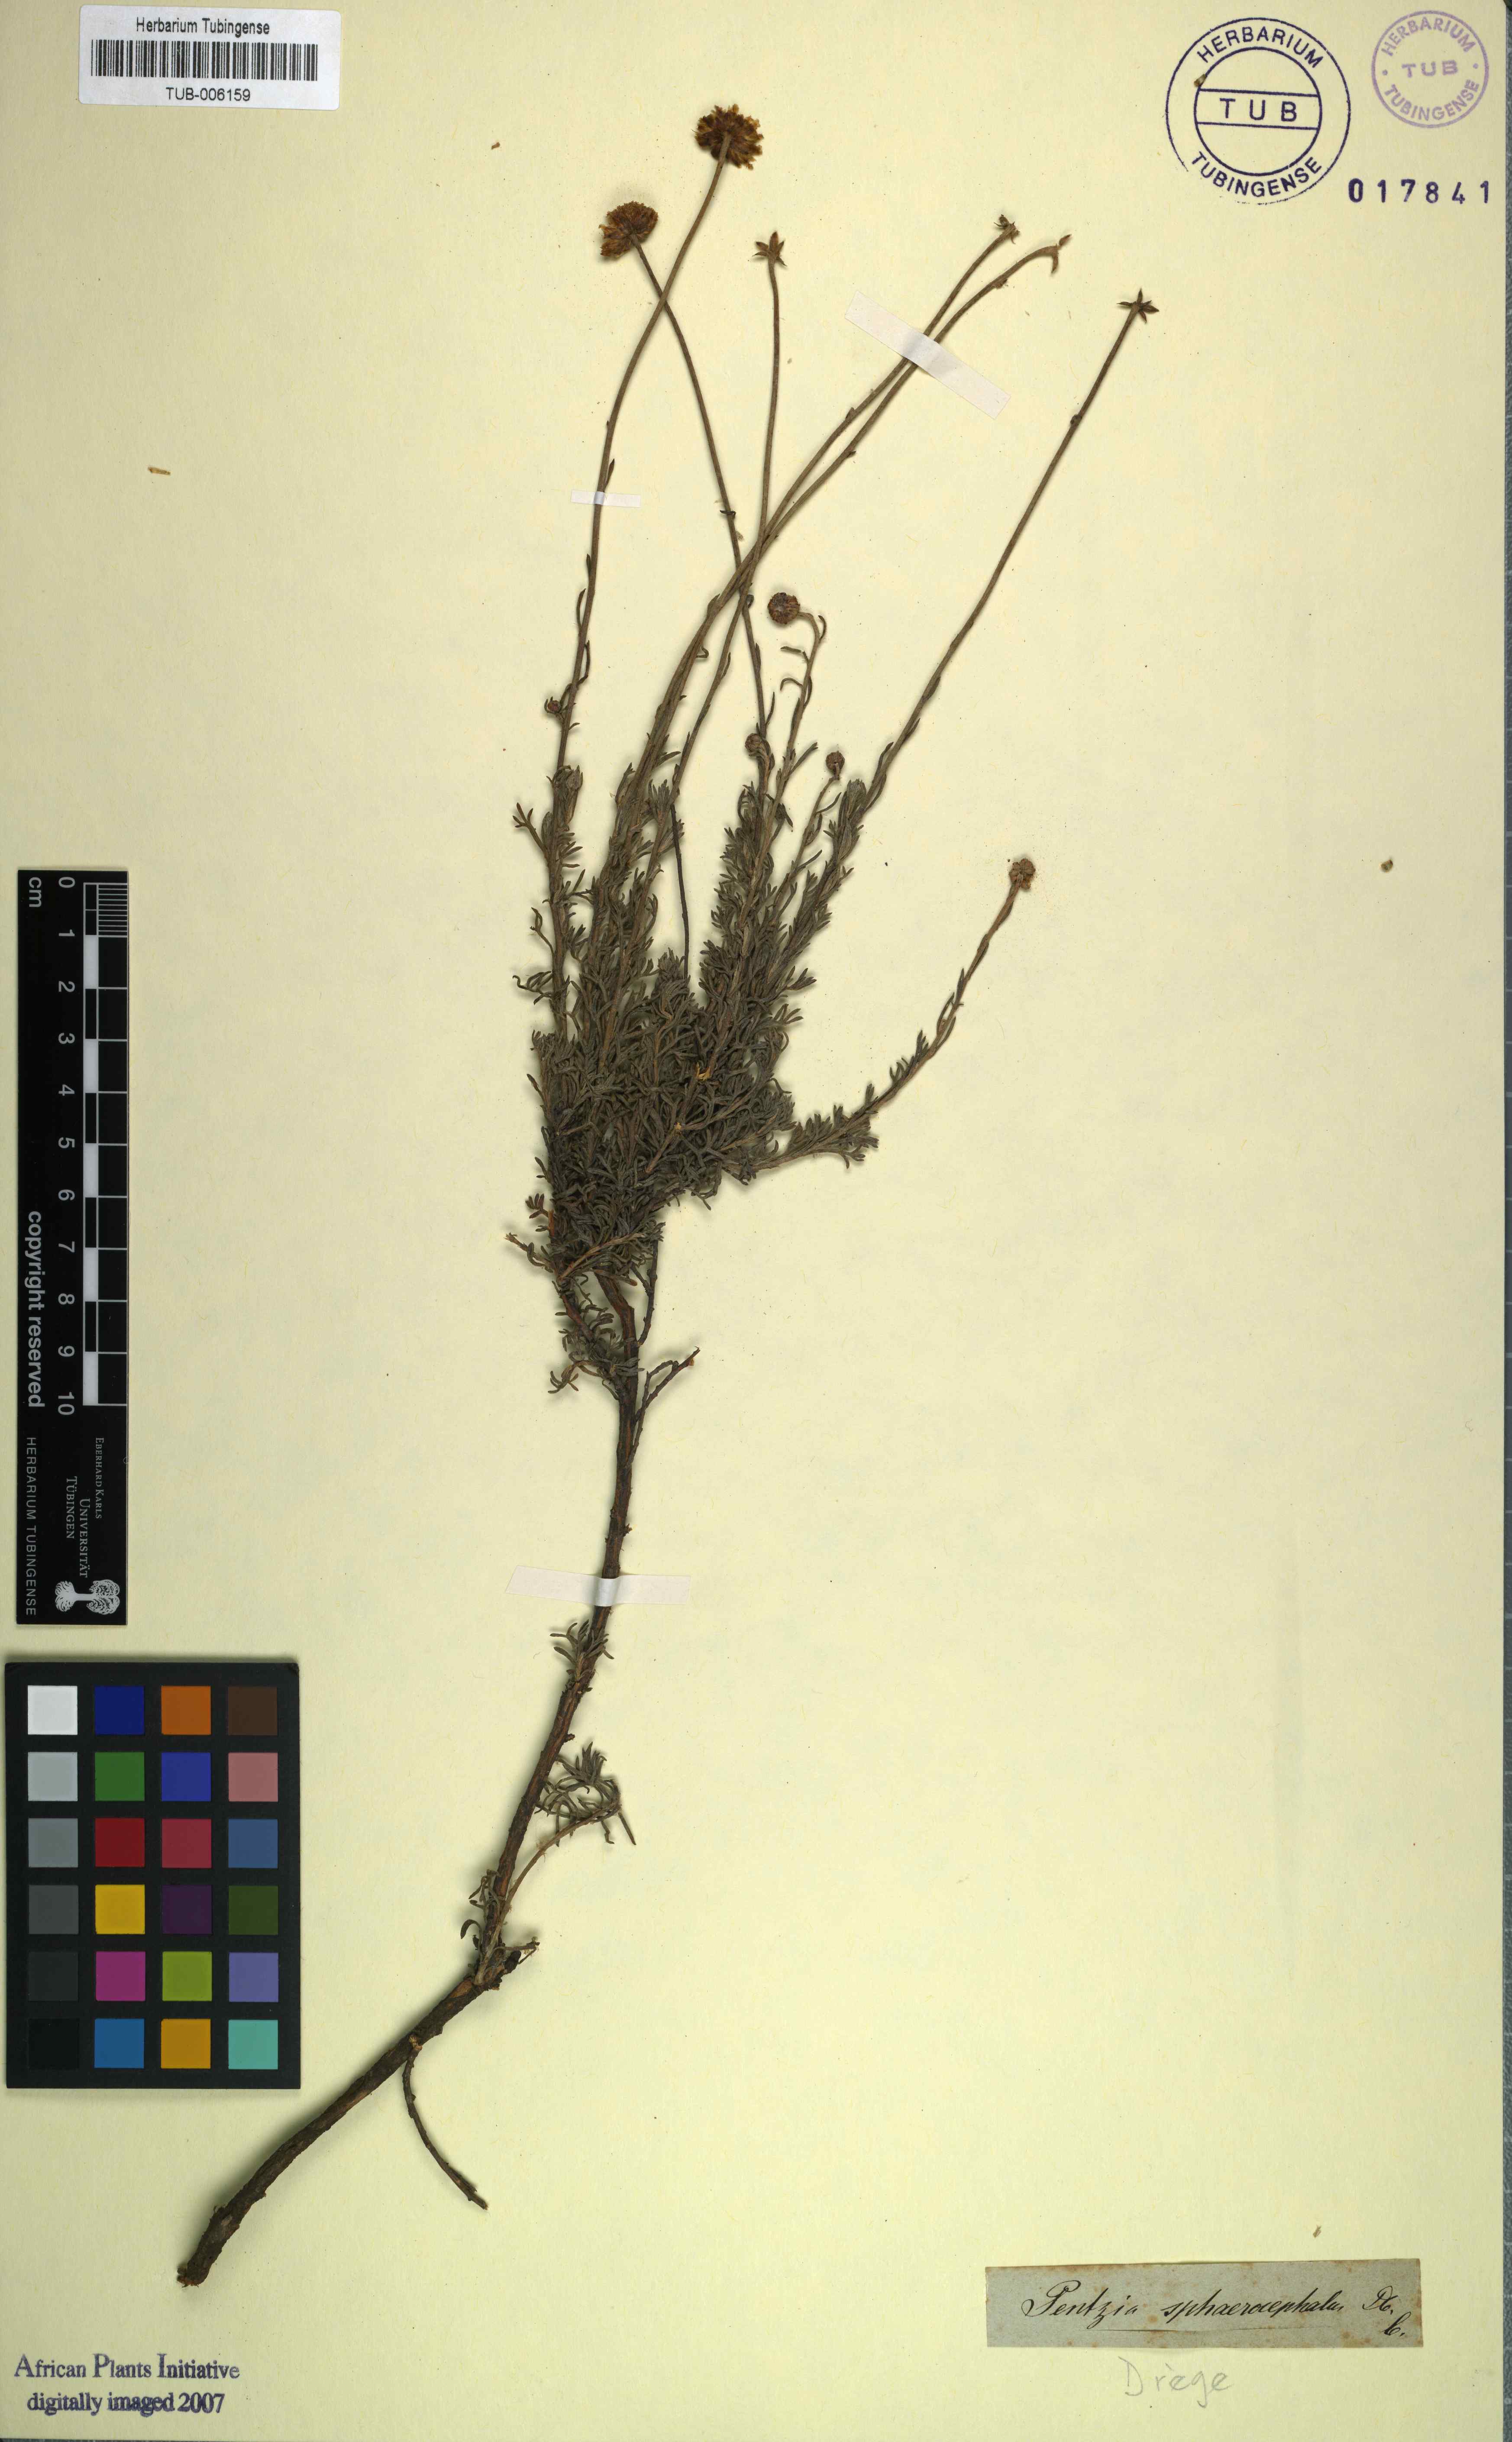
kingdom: Plantae
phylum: Tracheophyta
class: Magnoliopsida
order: Asterales
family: Asteraceae
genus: Pentzia
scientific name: Pentzia sphaerocephala
